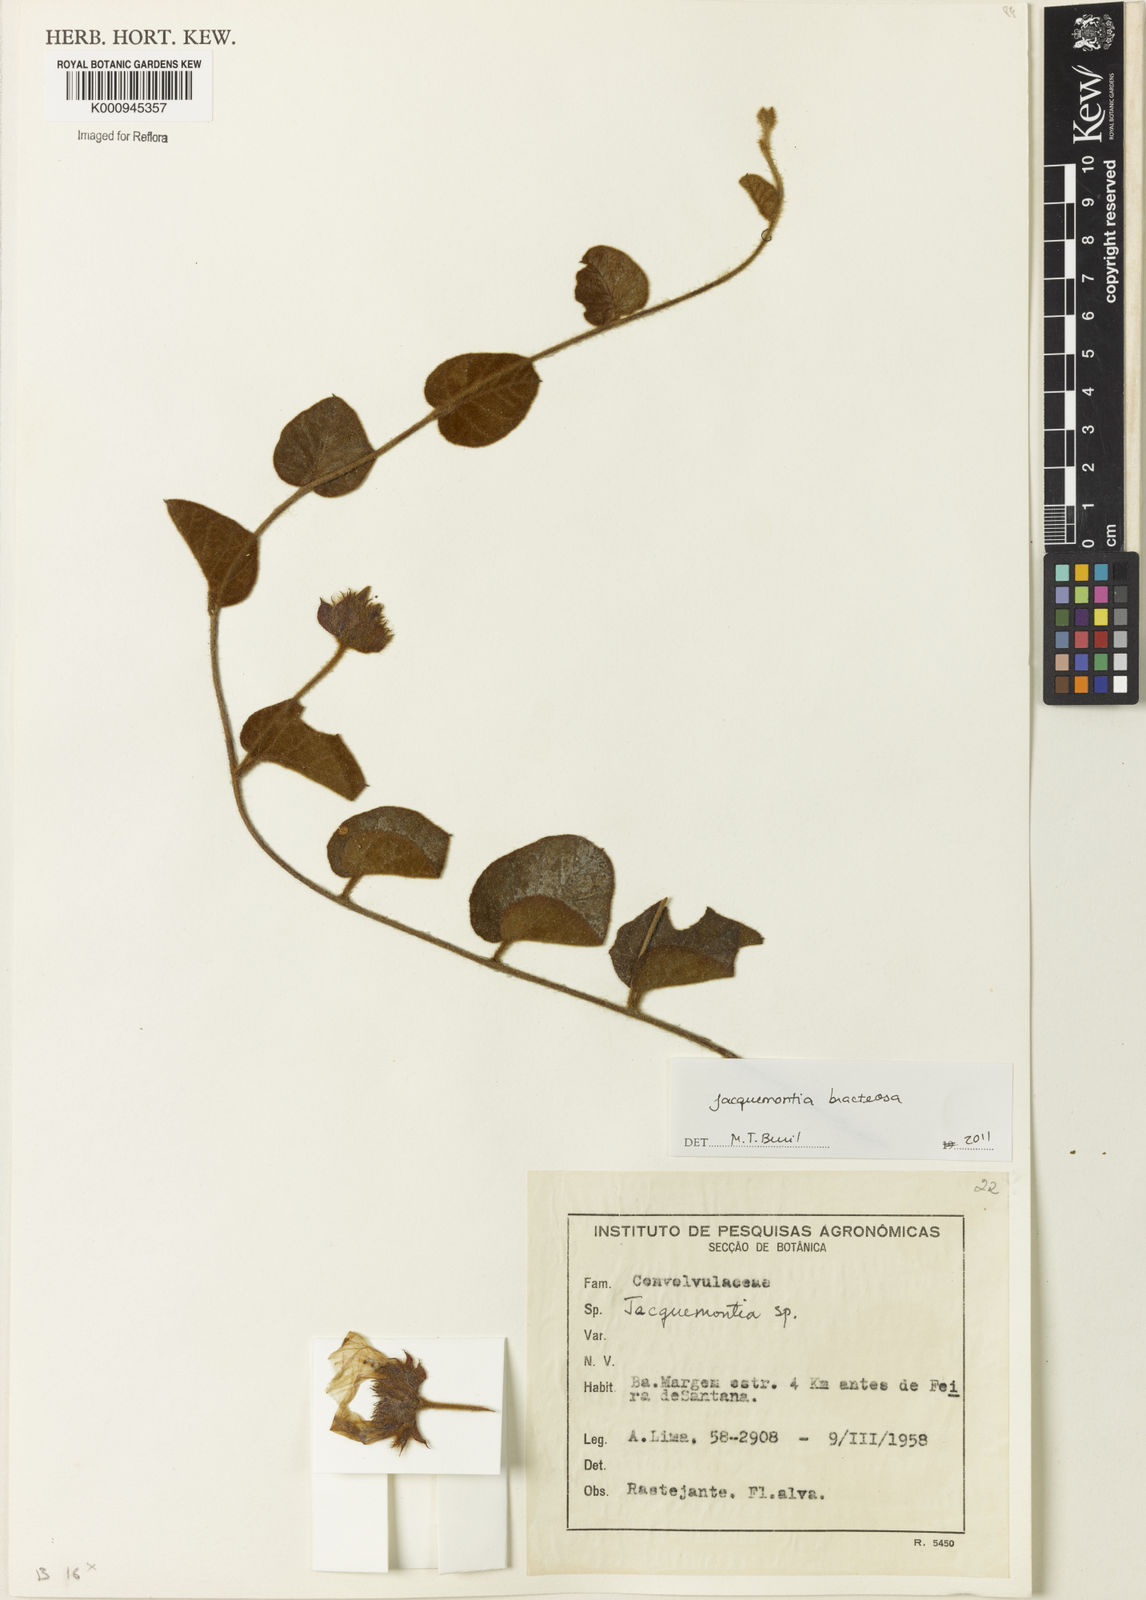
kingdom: Plantae
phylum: Tracheophyta
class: Magnoliopsida
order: Solanales
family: Convolvulaceae
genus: Jacquemontia
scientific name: Jacquemontia bracteosa
